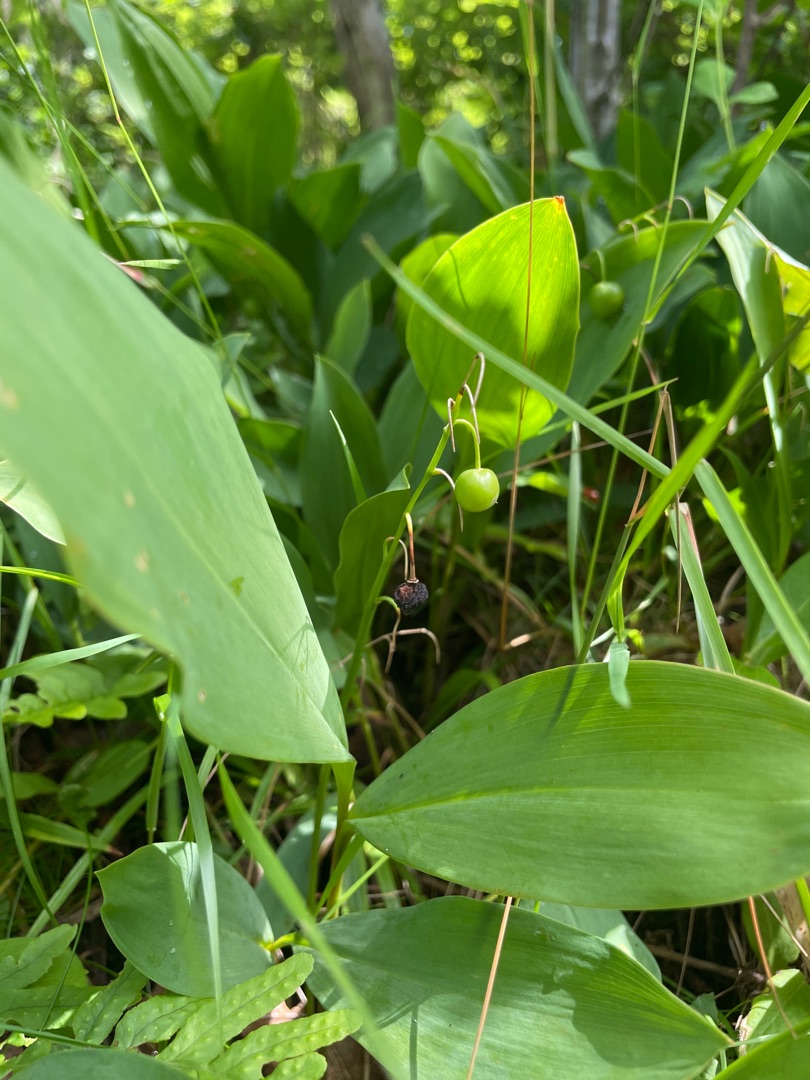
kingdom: Plantae
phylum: Tracheophyta
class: Liliopsida
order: Asparagales
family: Asparagaceae
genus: Convallaria
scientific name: Convallaria majalis
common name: Liljekonval
